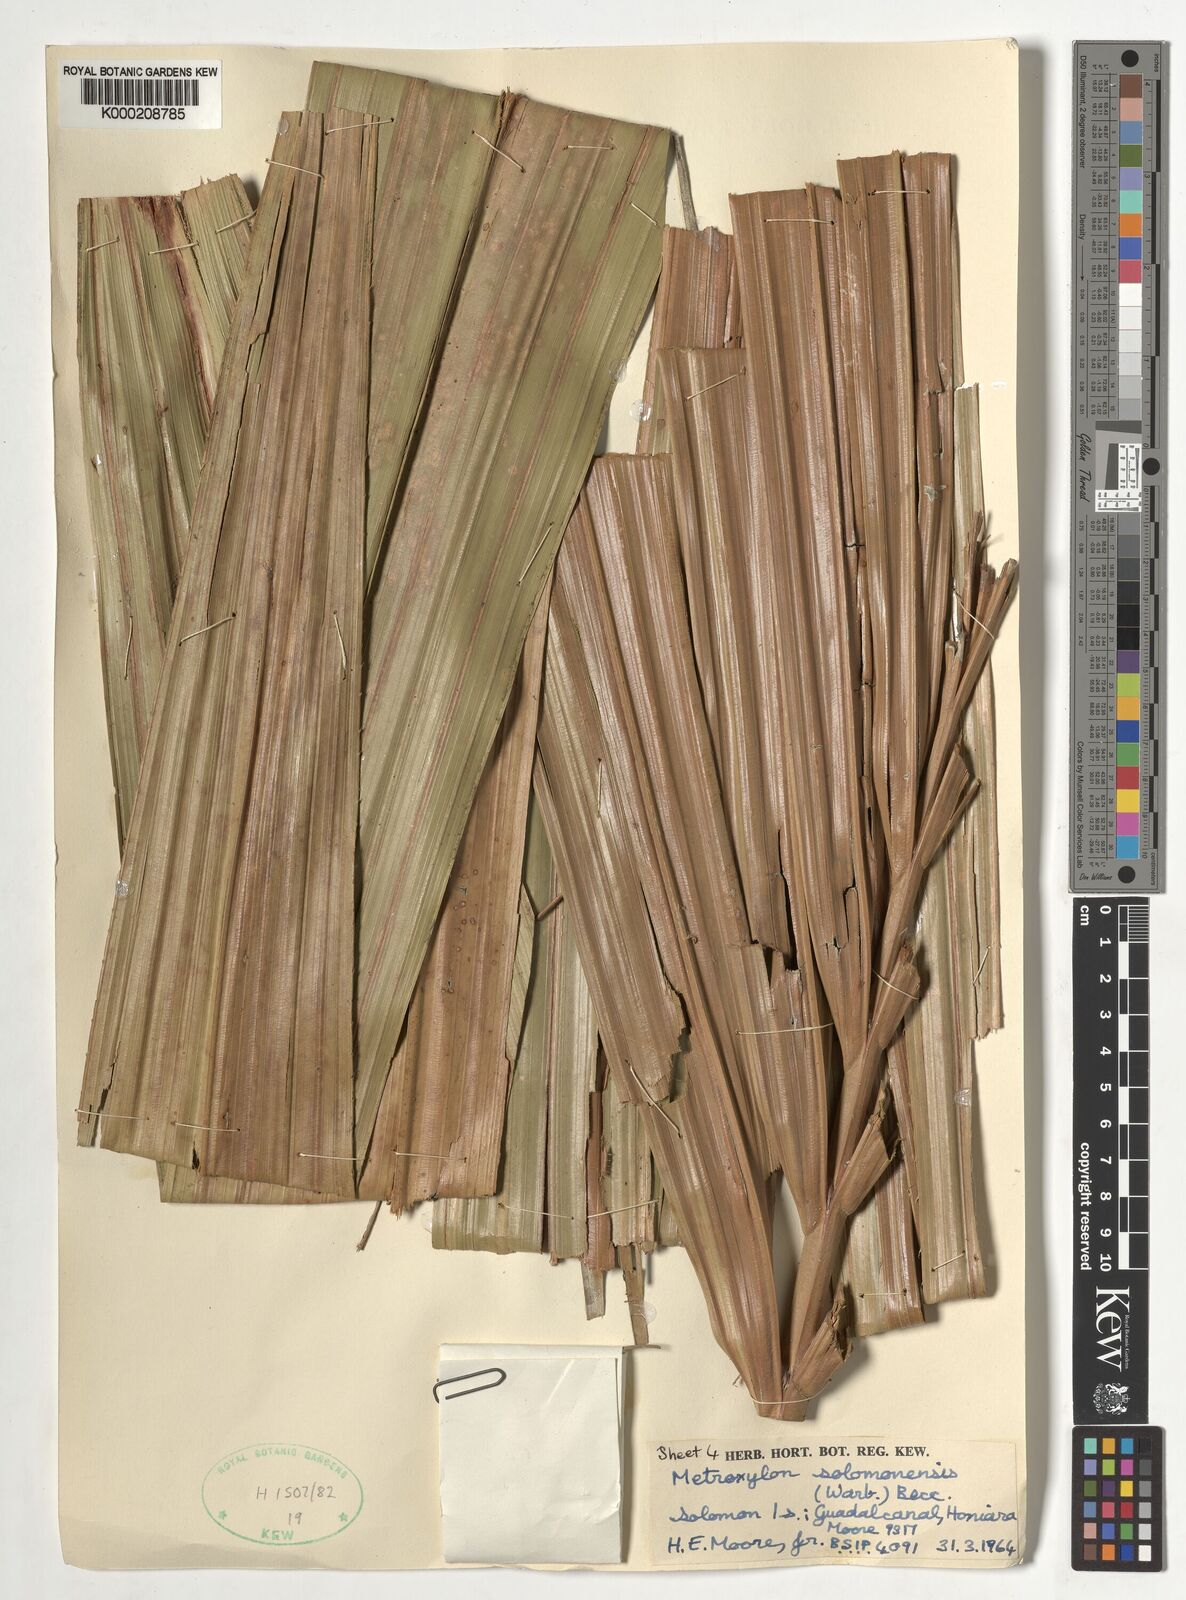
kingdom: Plantae
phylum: Tracheophyta
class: Liliopsida
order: Arecales
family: Arecaceae
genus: Metroxylon
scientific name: Metroxylon salomonense
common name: Solomon's sago palm
